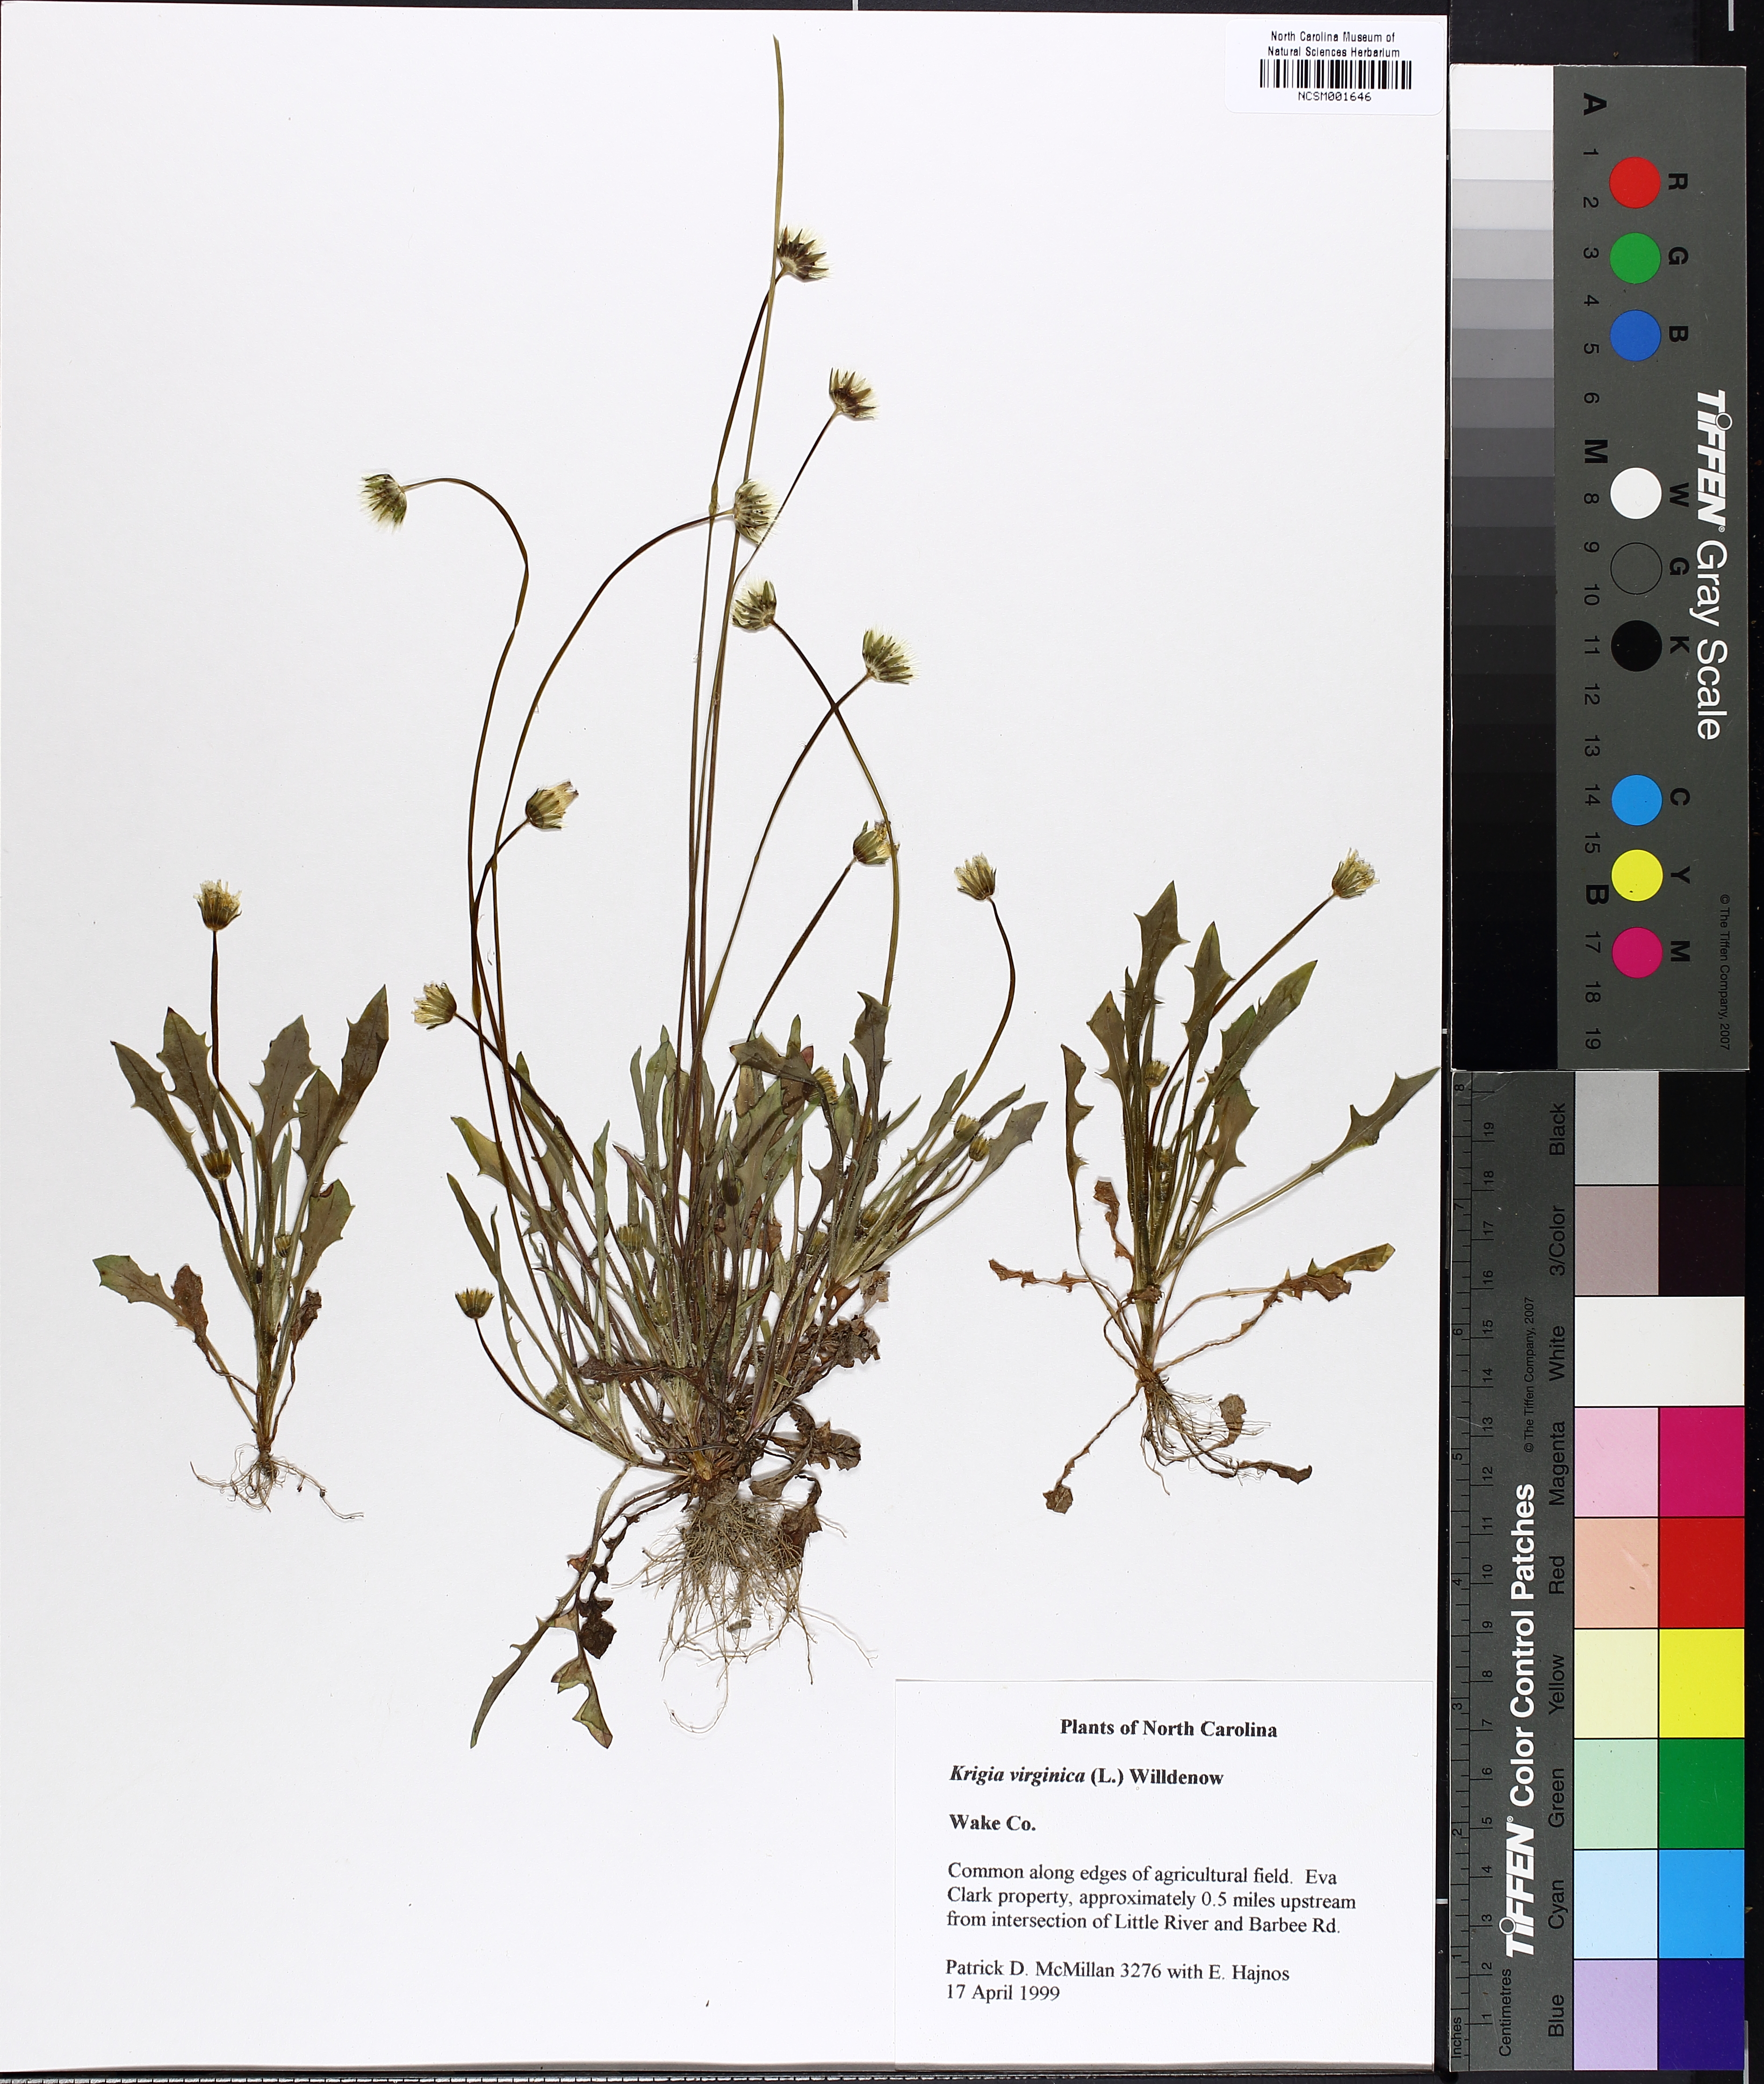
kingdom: Plantae
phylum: Tracheophyta
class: Magnoliopsida
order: Asterales
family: Asteraceae
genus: Krigia
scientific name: Krigia virginica
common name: Virginia dwarf-dandelion
